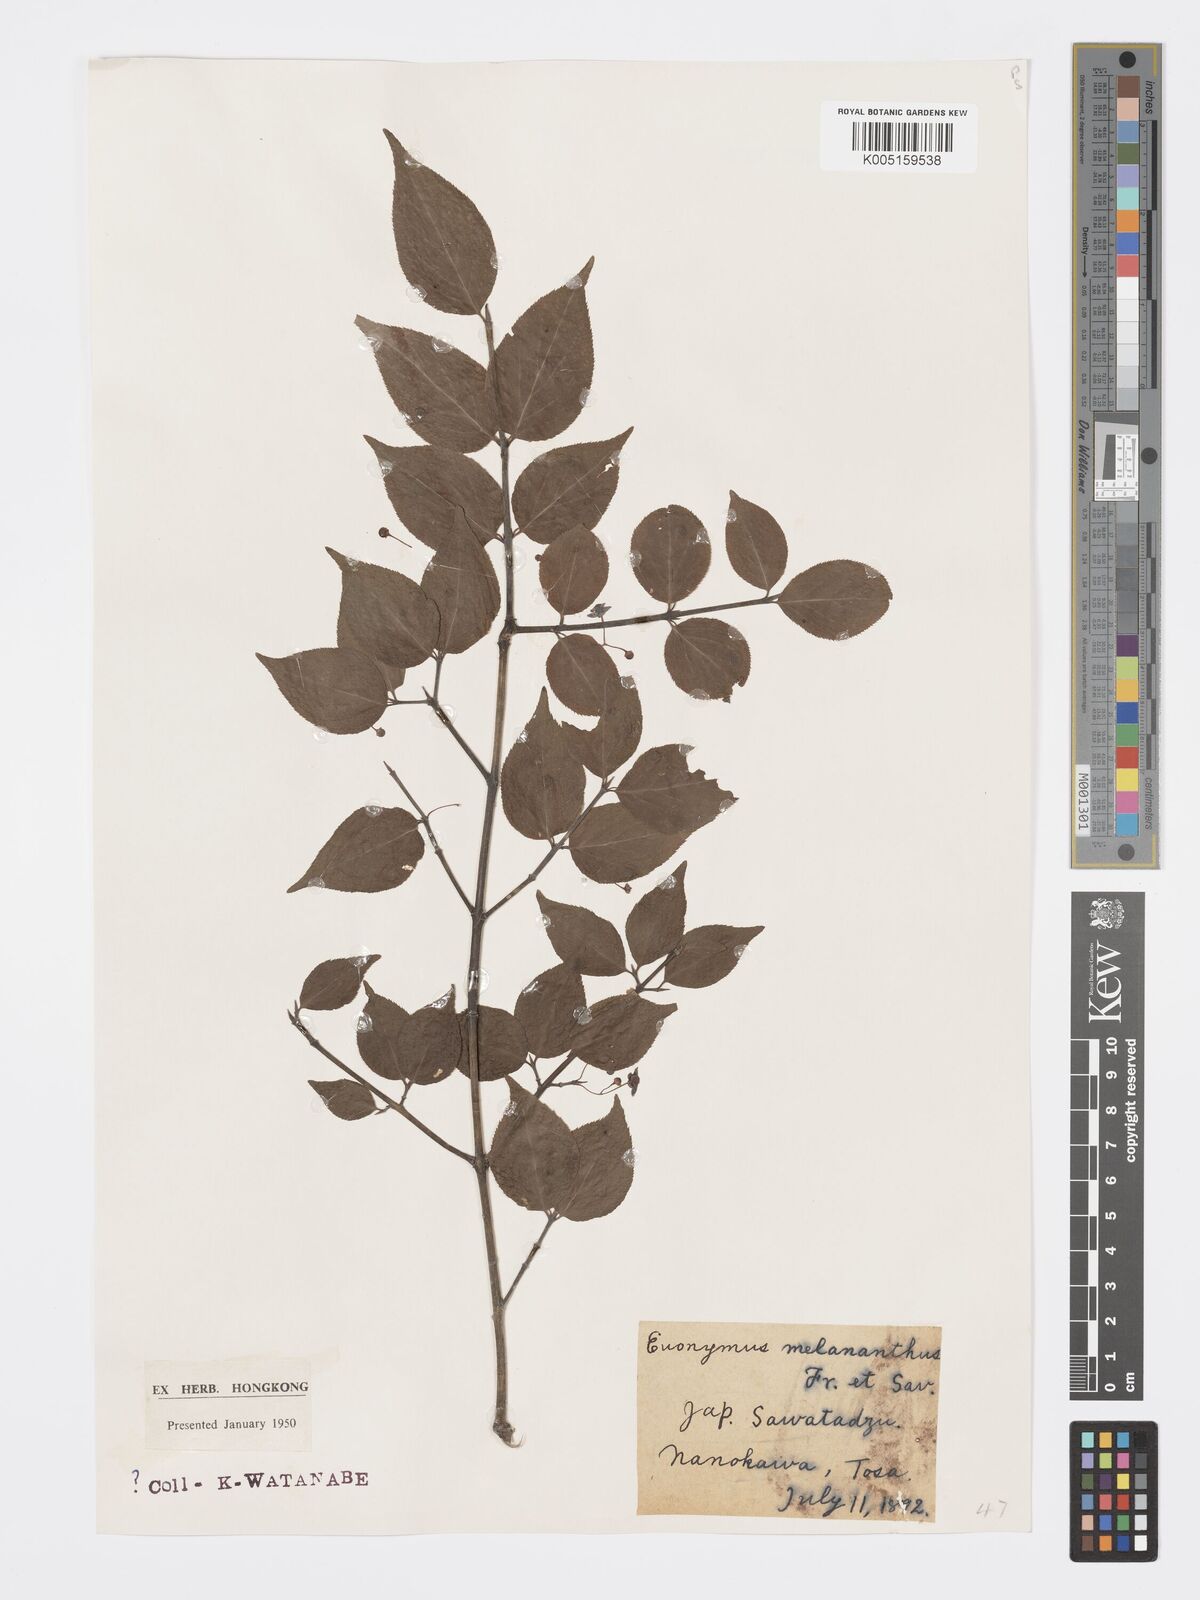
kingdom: Plantae
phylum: Tracheophyta
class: Magnoliopsida
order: Celastrales
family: Celastraceae
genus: Euonymus
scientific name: Euonymus melananthus
